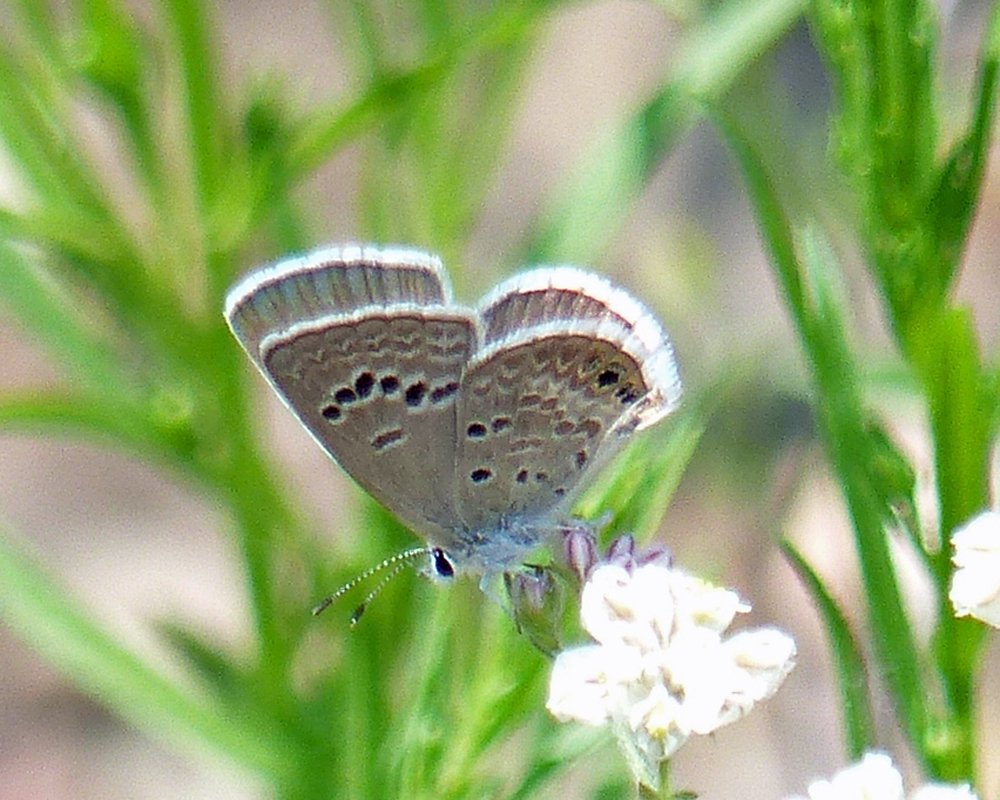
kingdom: Animalia
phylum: Arthropoda
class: Insecta
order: Lepidoptera
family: Lycaenidae
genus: Echinargus
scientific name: Echinargus isola
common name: Reakirt's Blue
